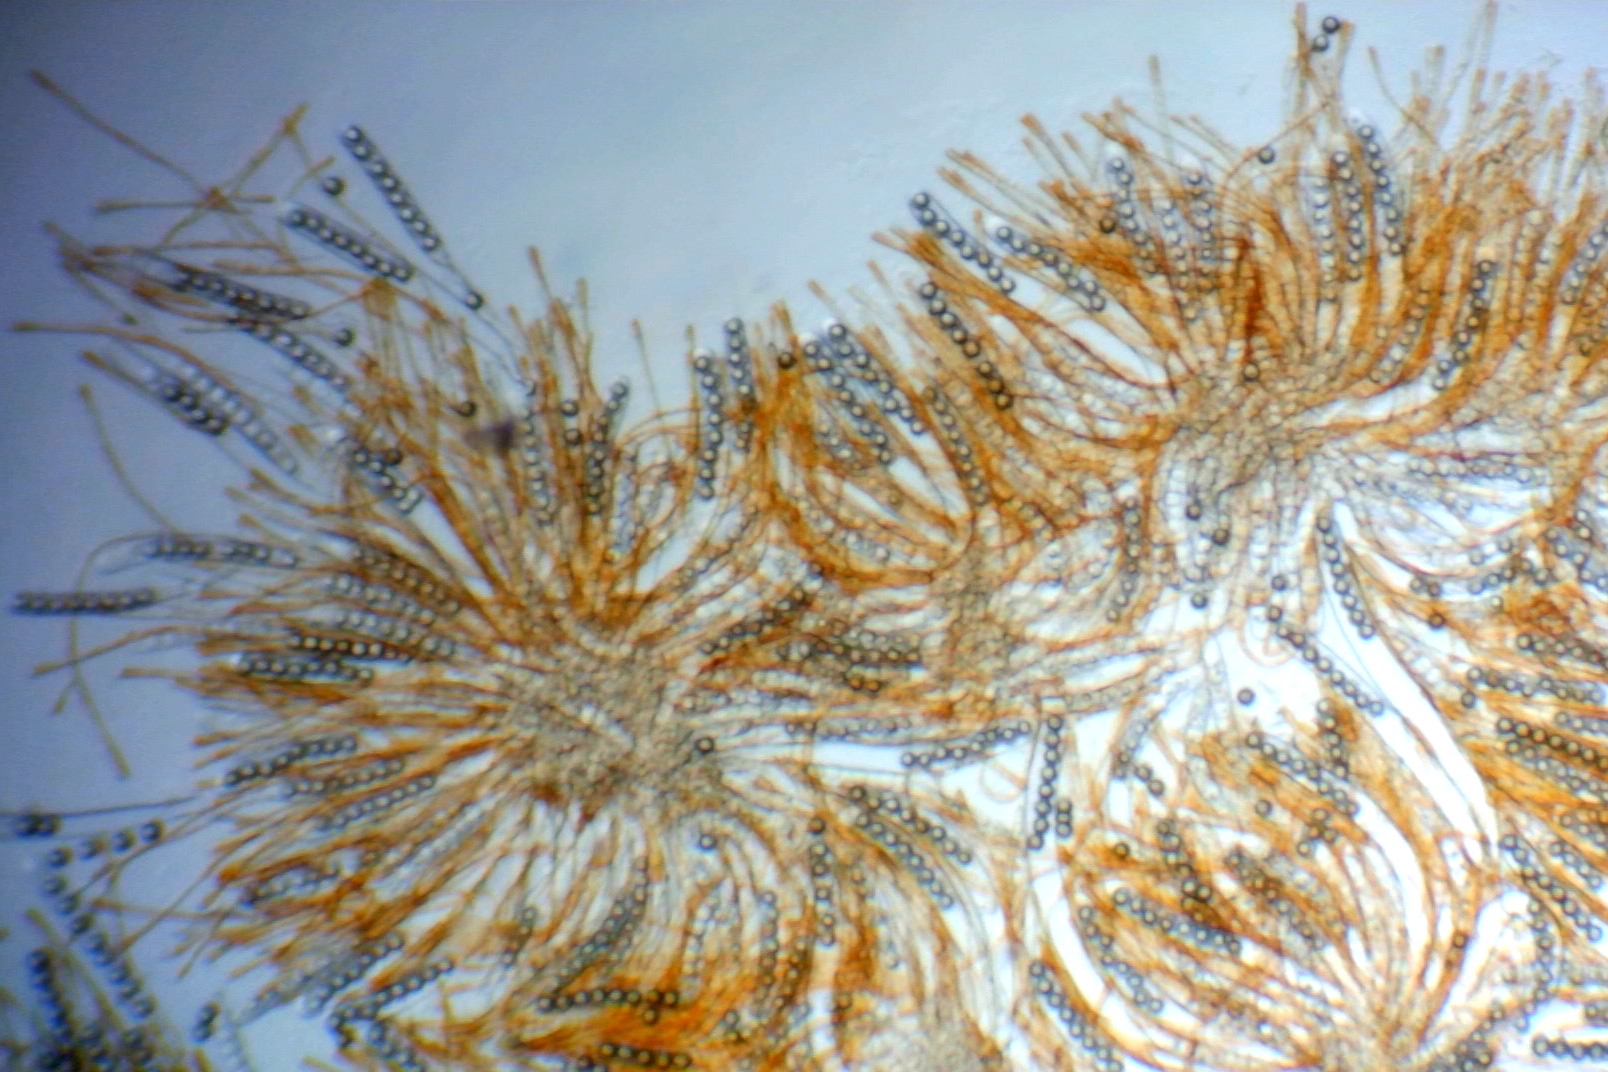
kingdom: Fungi
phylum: Ascomycota
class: Pezizomycetes
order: Pezizales
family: Pyronemataceae
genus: Lamprospora
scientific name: Lamprospora miniata
